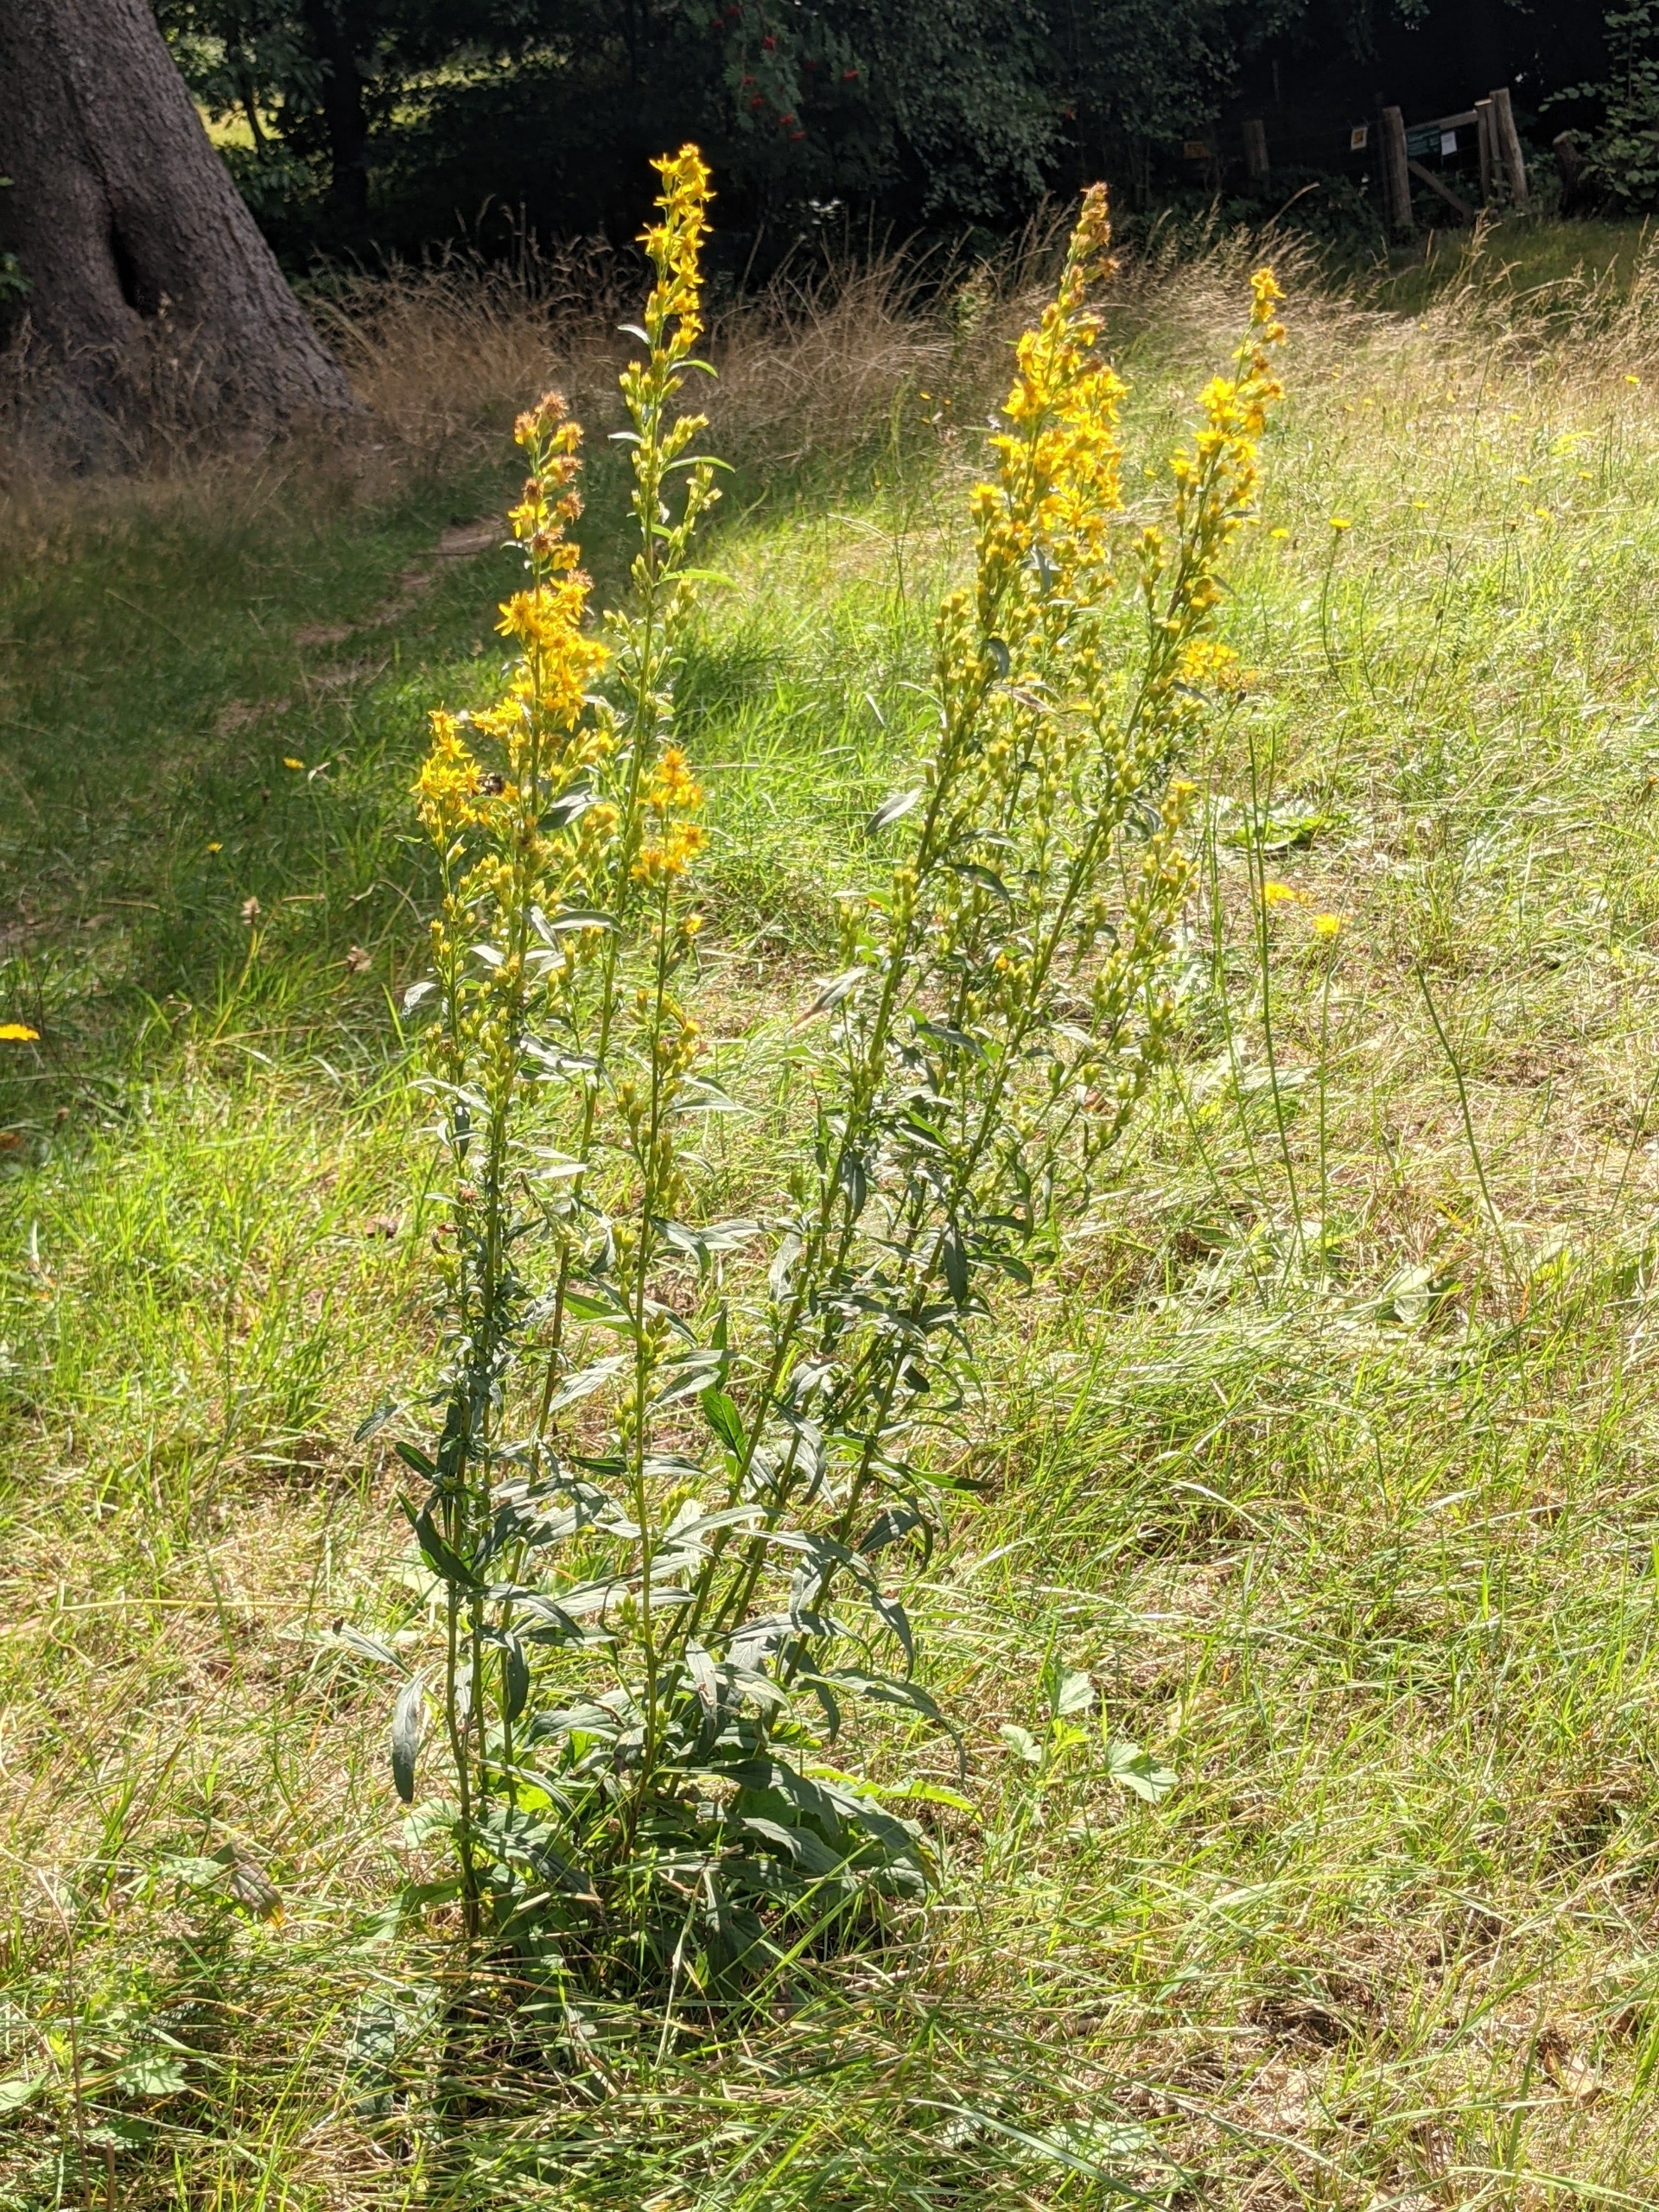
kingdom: Plantae
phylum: Tracheophyta
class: Magnoliopsida
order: Asterales
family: Asteraceae
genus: Solidago
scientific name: Solidago virgaurea
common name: Almindelig gyldenris
